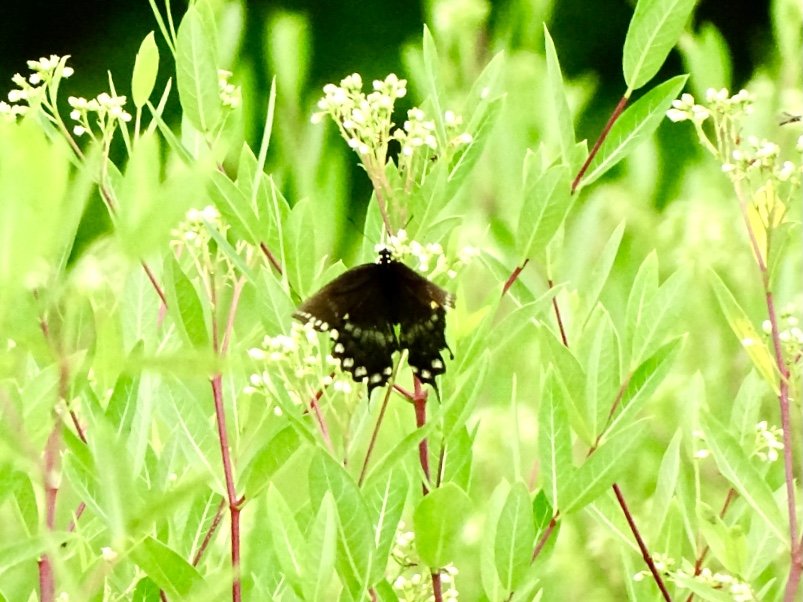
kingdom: Animalia
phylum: Arthropoda
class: Insecta
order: Lepidoptera
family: Papilionidae
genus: Pterourus
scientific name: Pterourus troilus
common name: Spicebush Swallowtail
